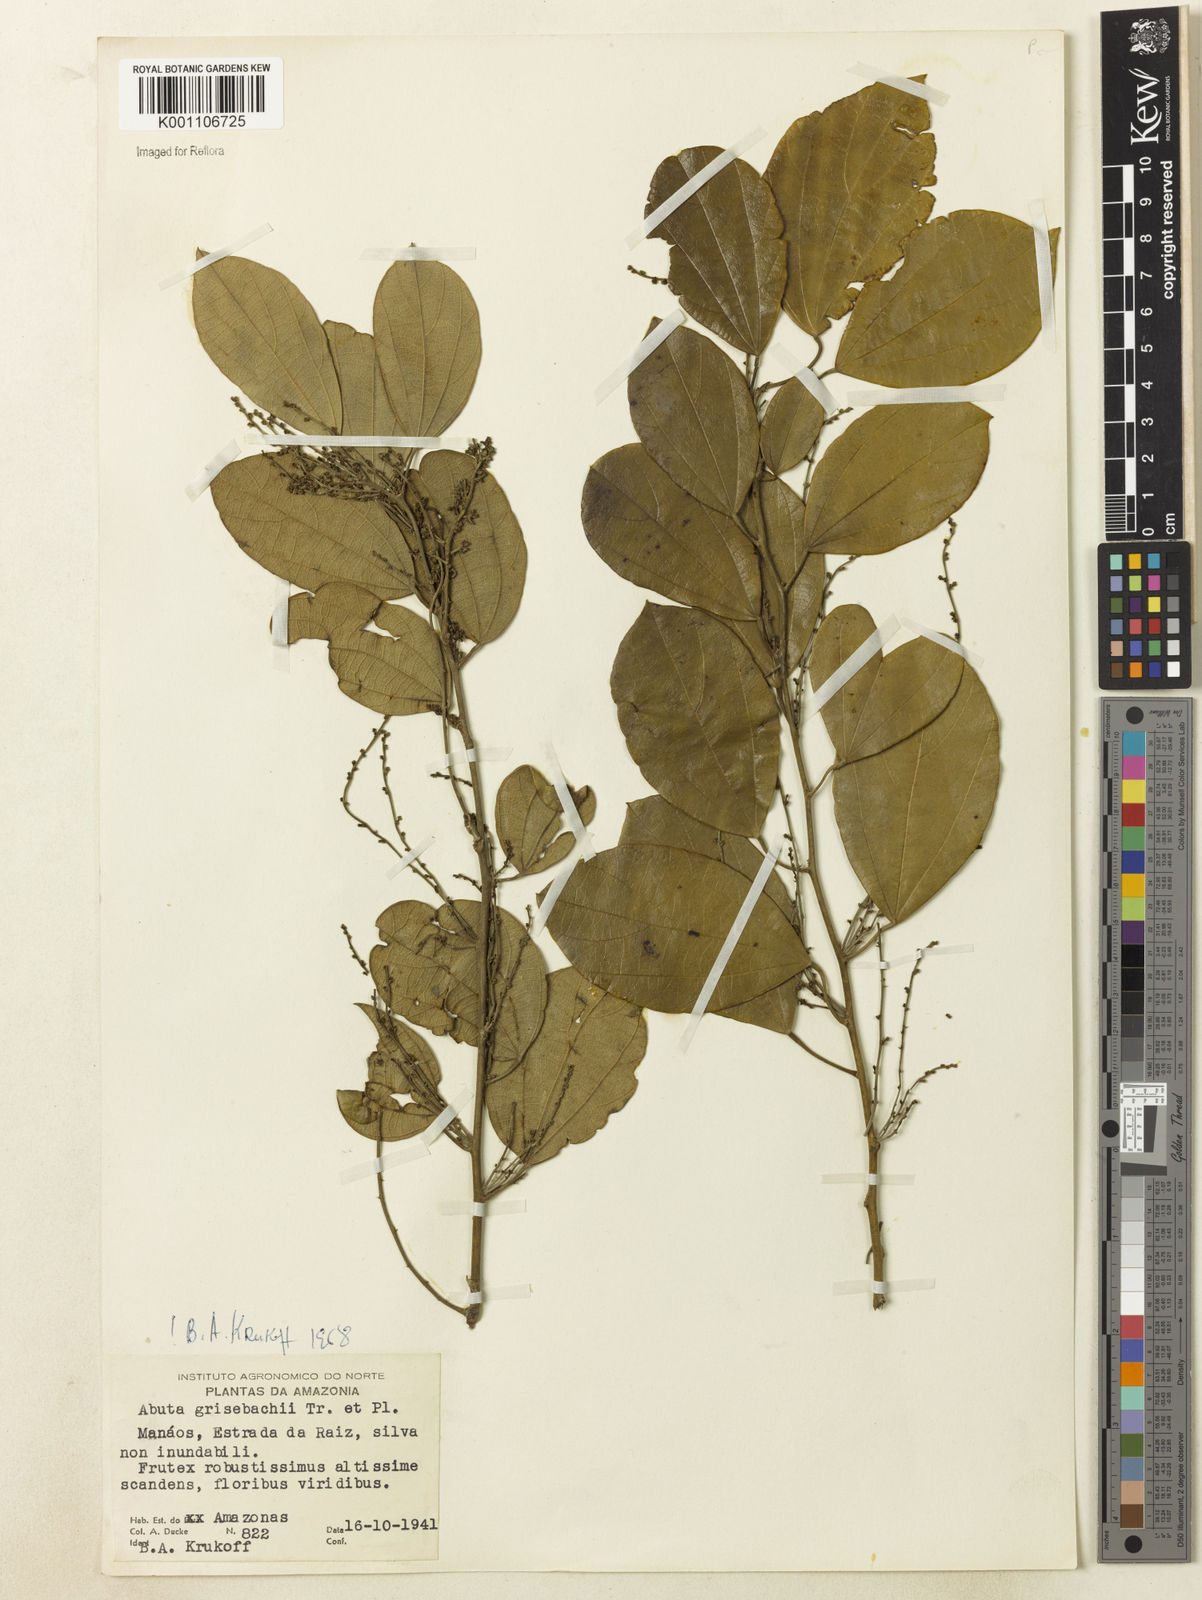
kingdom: Plantae
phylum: Tracheophyta
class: Magnoliopsida
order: Ranunculales
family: Menispermaceae
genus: Abuta
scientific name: Abuta grisebachii
